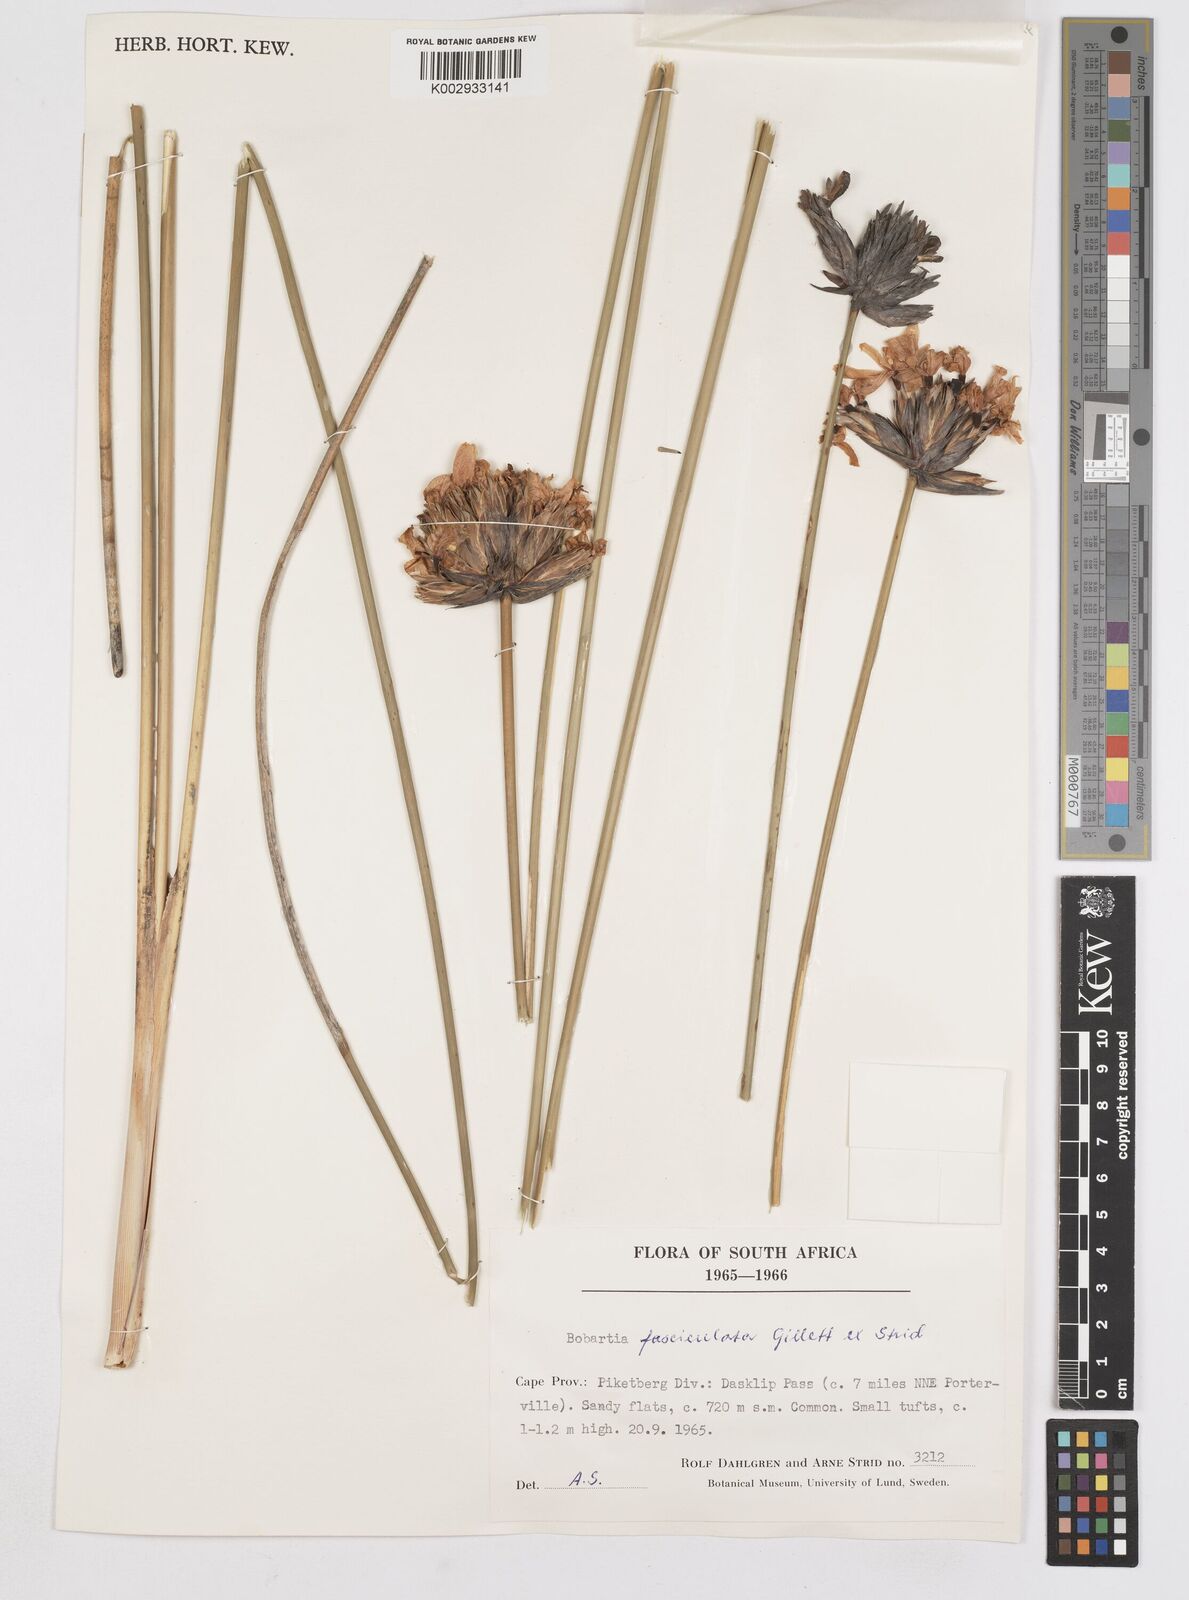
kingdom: Plantae
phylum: Tracheophyta
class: Liliopsida
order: Asparagales
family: Iridaceae
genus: Bobartia
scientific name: Bobartia fasciculata
